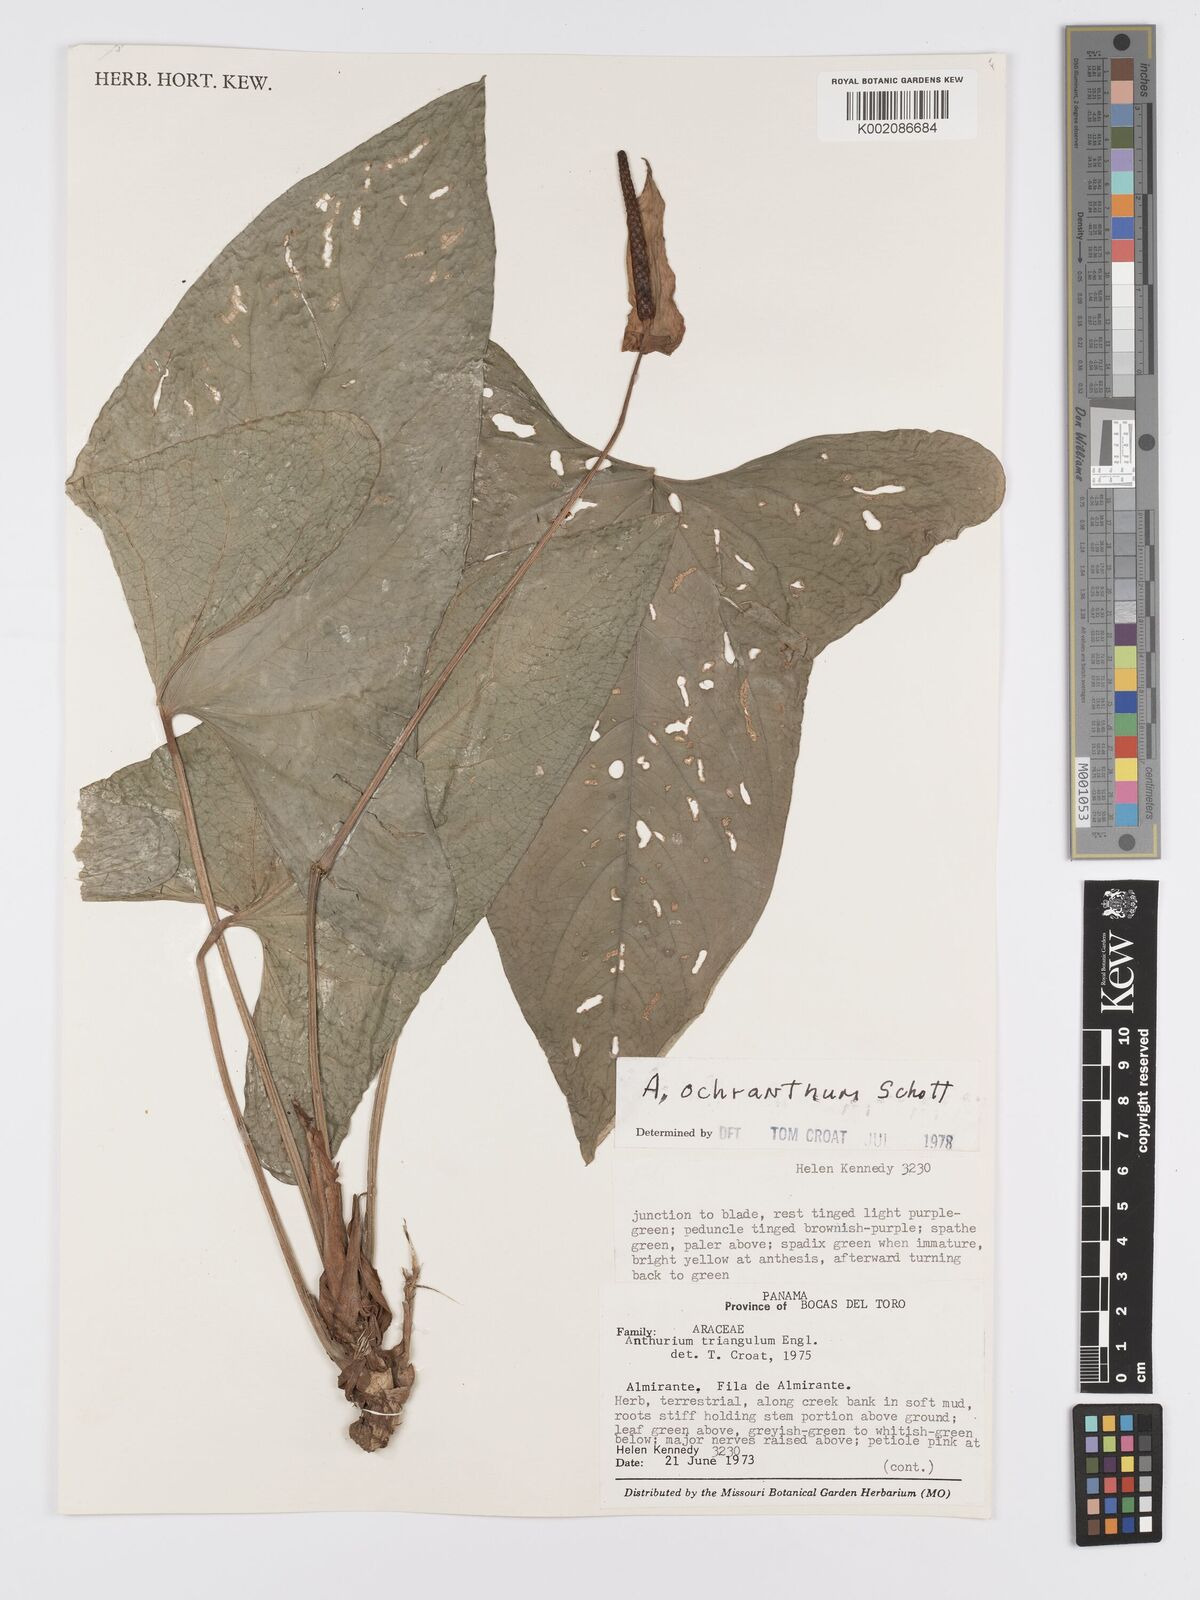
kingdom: Plantae
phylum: Tracheophyta
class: Liliopsida
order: Alismatales
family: Araceae
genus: Anthurium
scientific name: Anthurium ochranthum
